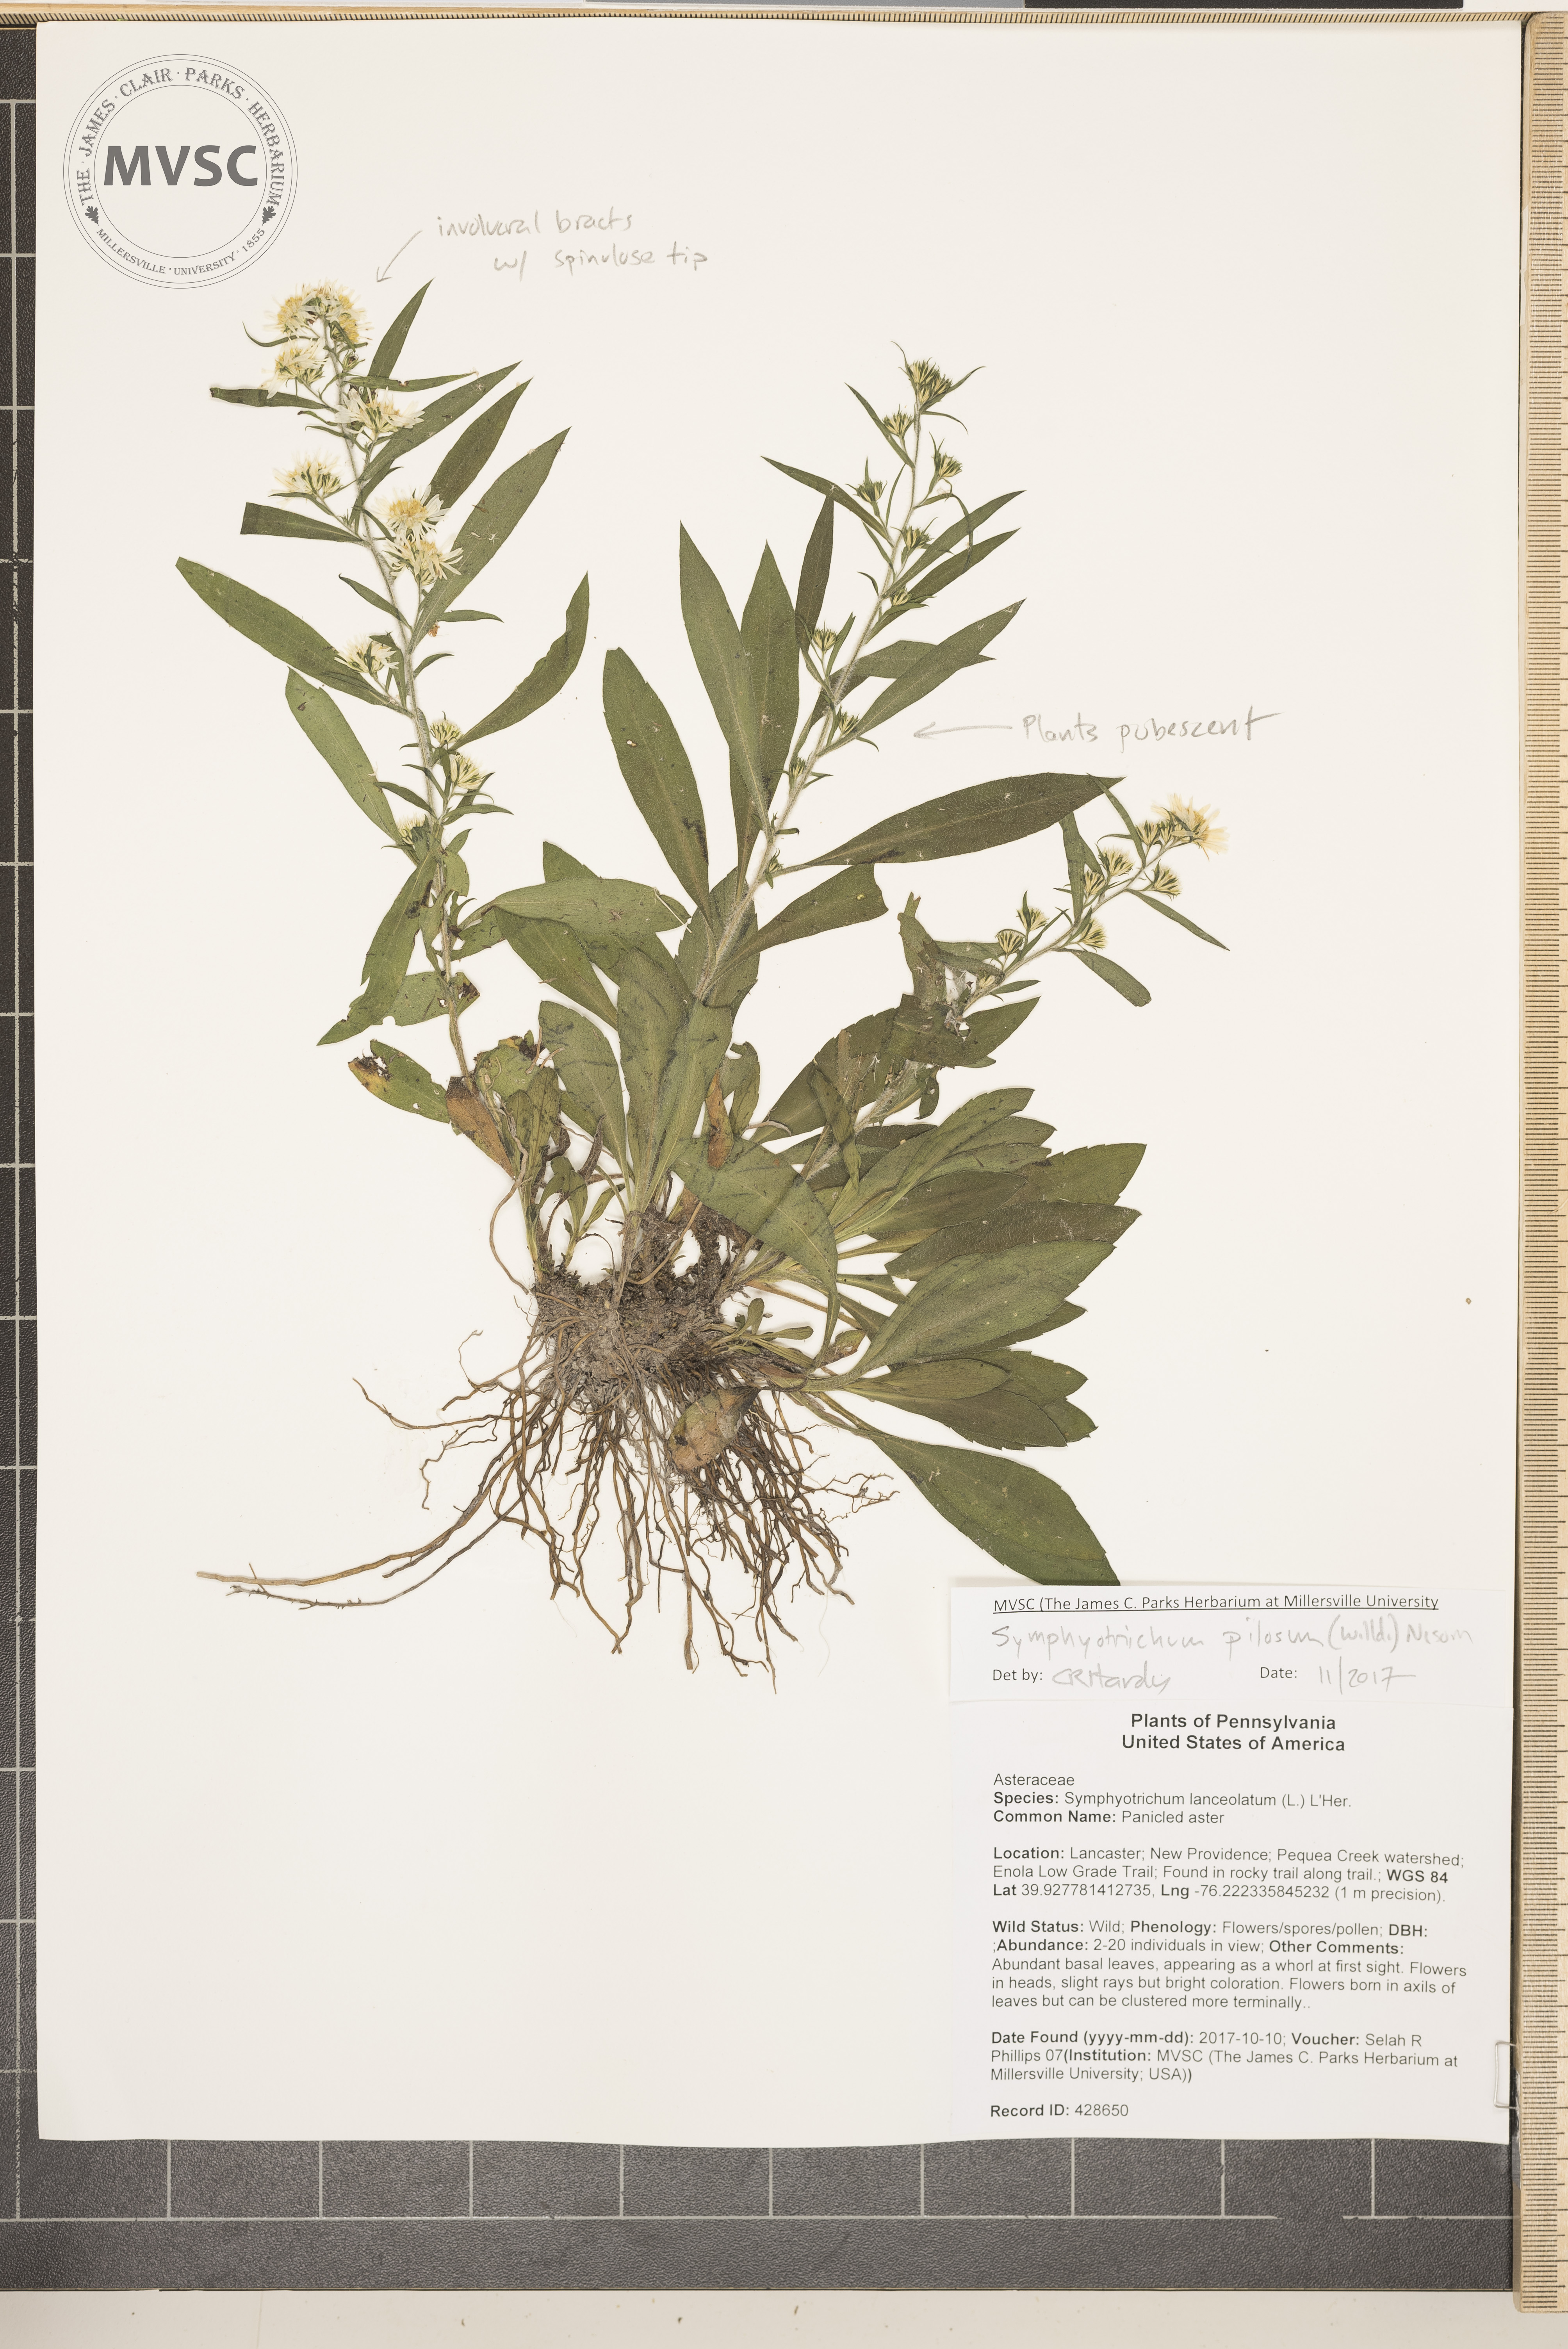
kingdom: Plantae
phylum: Tracheophyta
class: Magnoliopsida
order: Asterales
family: Asteraceae
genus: Symphyotrichum
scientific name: Symphyotrichum pilosum
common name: Aster
